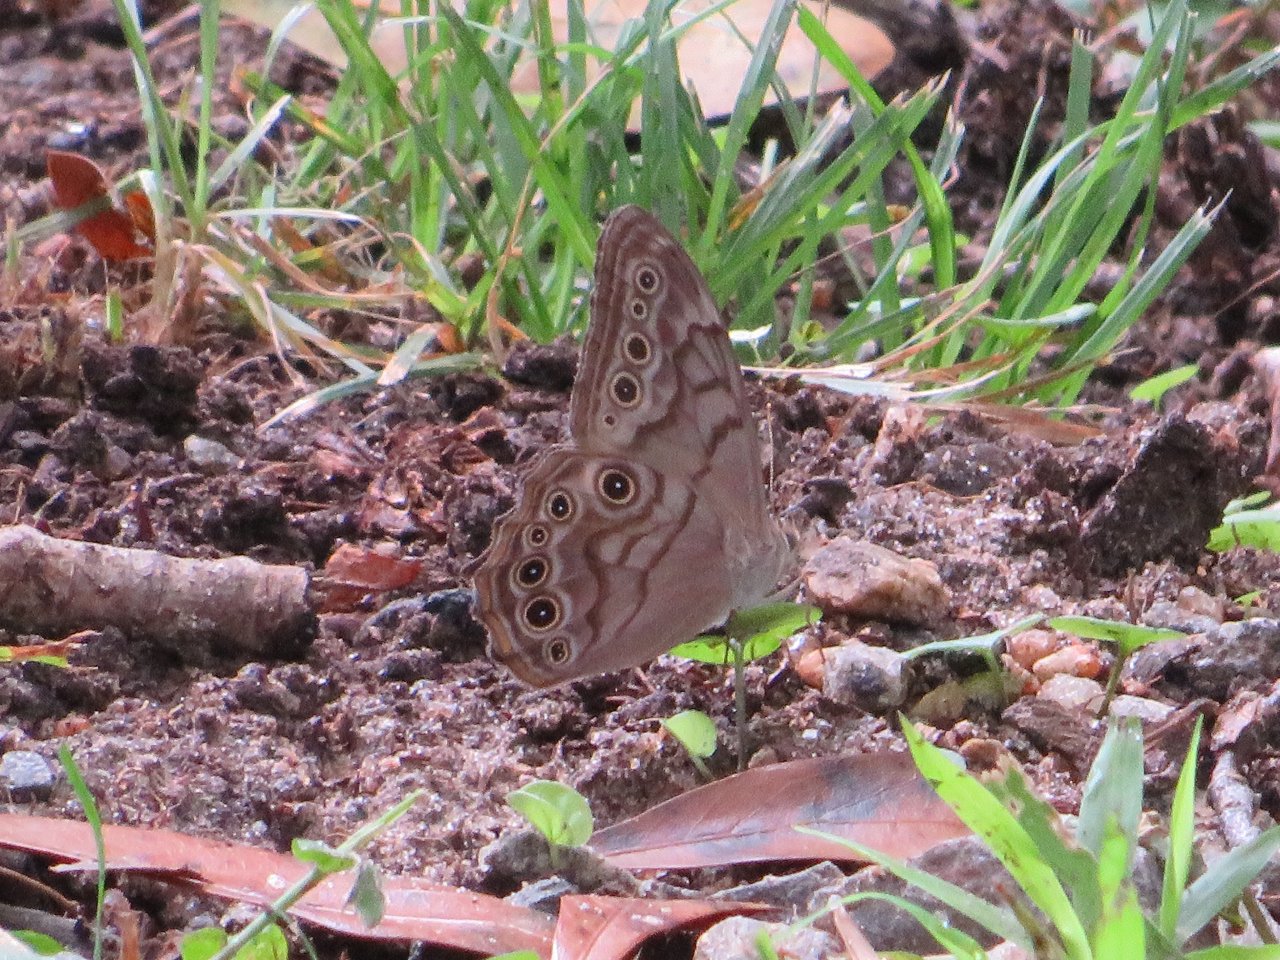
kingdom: Animalia
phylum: Arthropoda
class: Insecta
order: Lepidoptera
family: Nymphalidae
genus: Lethe
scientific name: Lethe creola
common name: Creole Pearly-Eye
